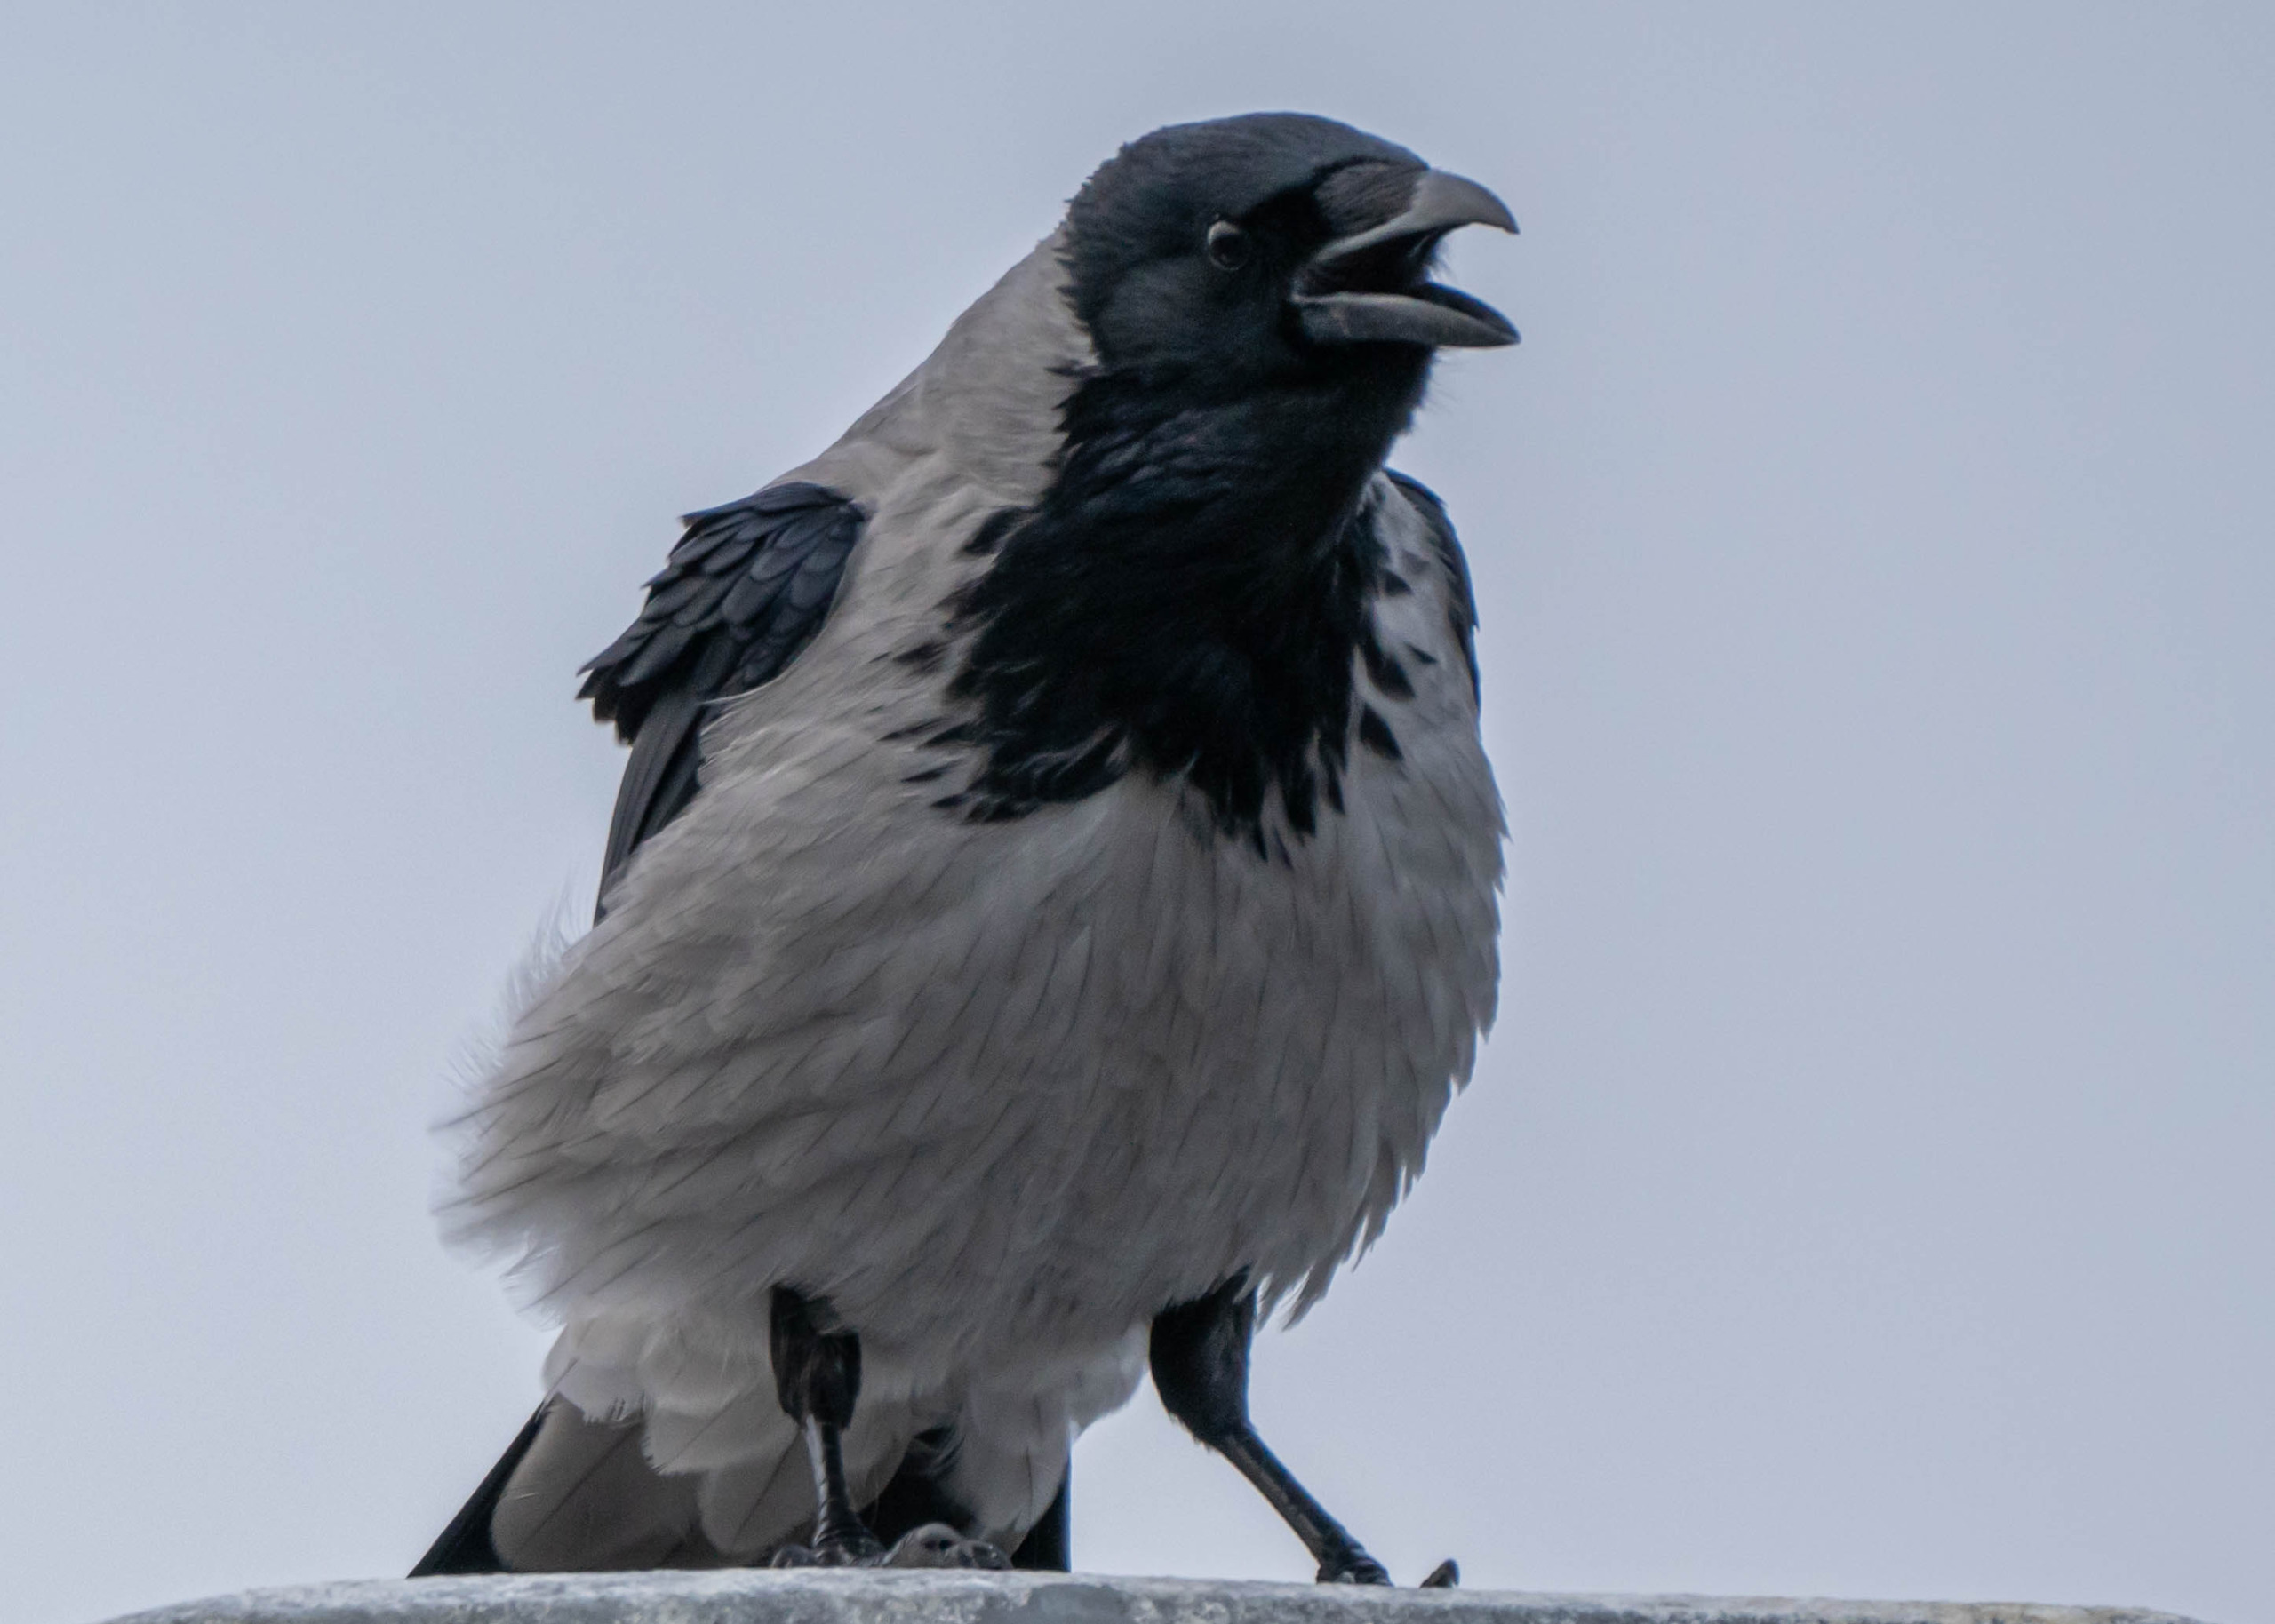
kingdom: Animalia
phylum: Chordata
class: Aves
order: Passeriformes
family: Corvidae
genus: Corvus
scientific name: Corvus cornix
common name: Gråkrage
